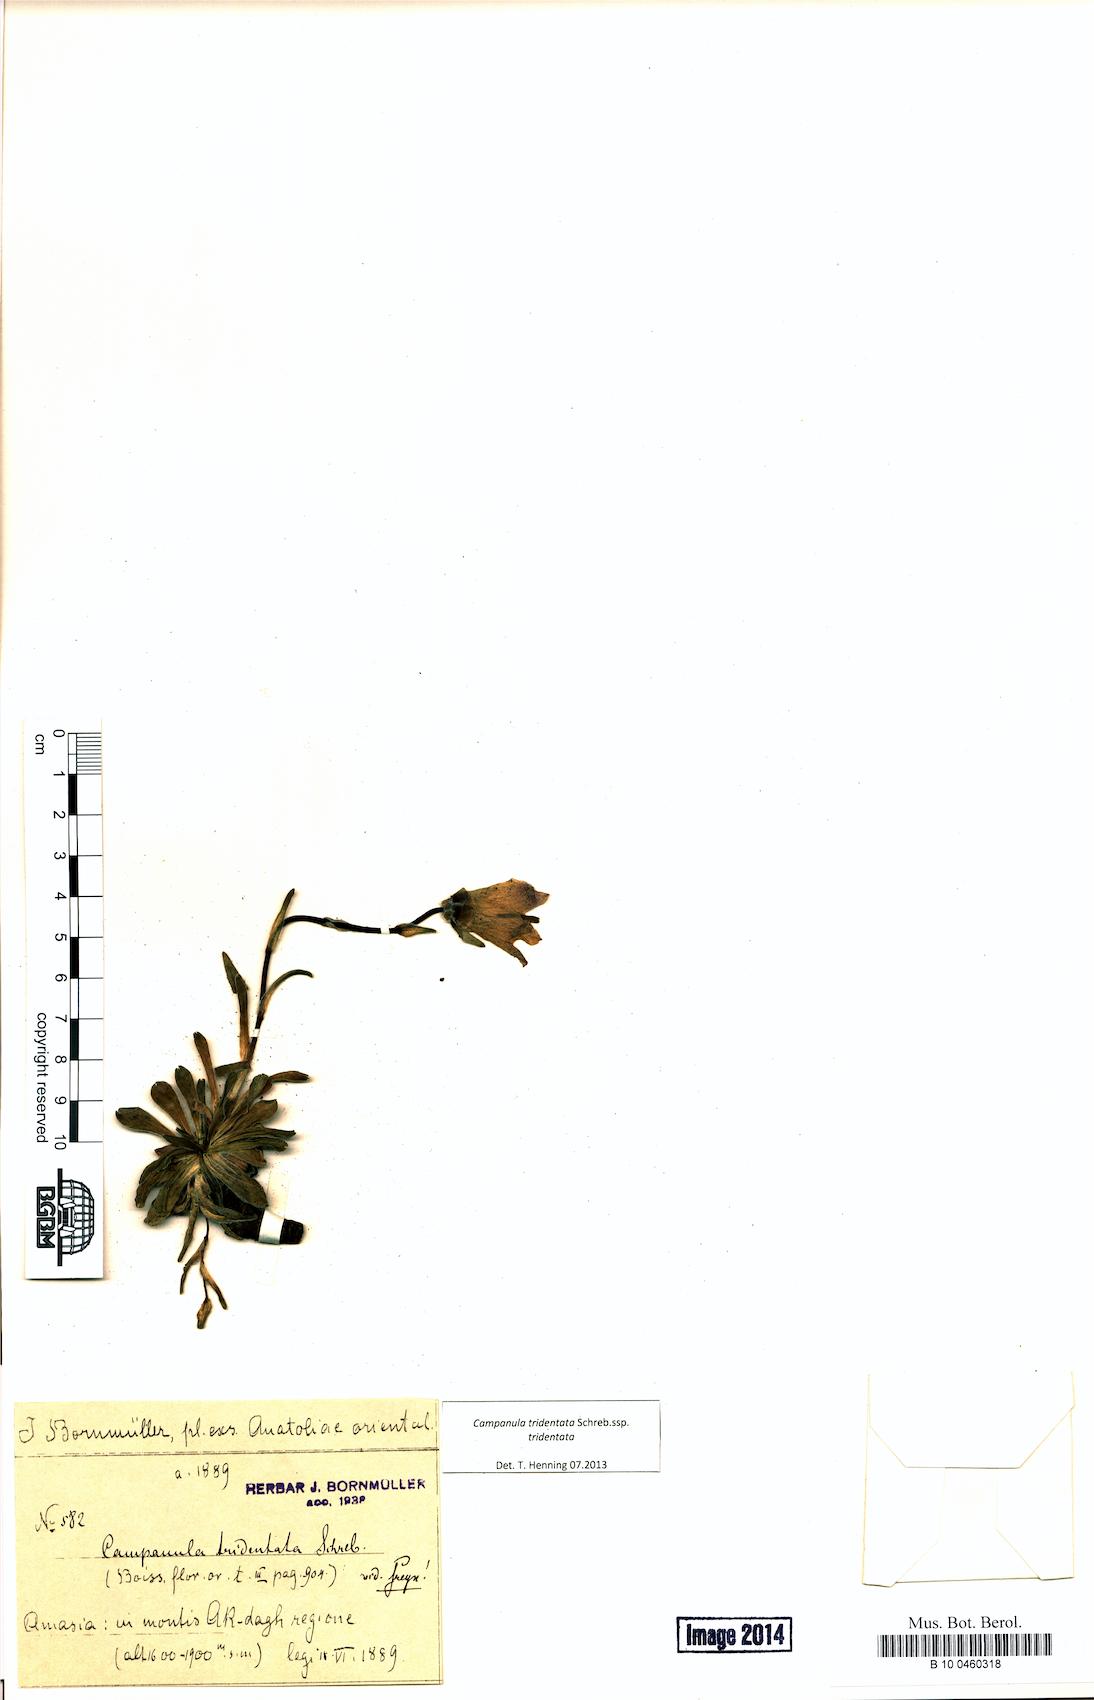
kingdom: Plantae
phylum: Tracheophyta
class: Magnoliopsida
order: Asterales
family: Campanulaceae
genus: Campanula
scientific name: Campanula tridentata
